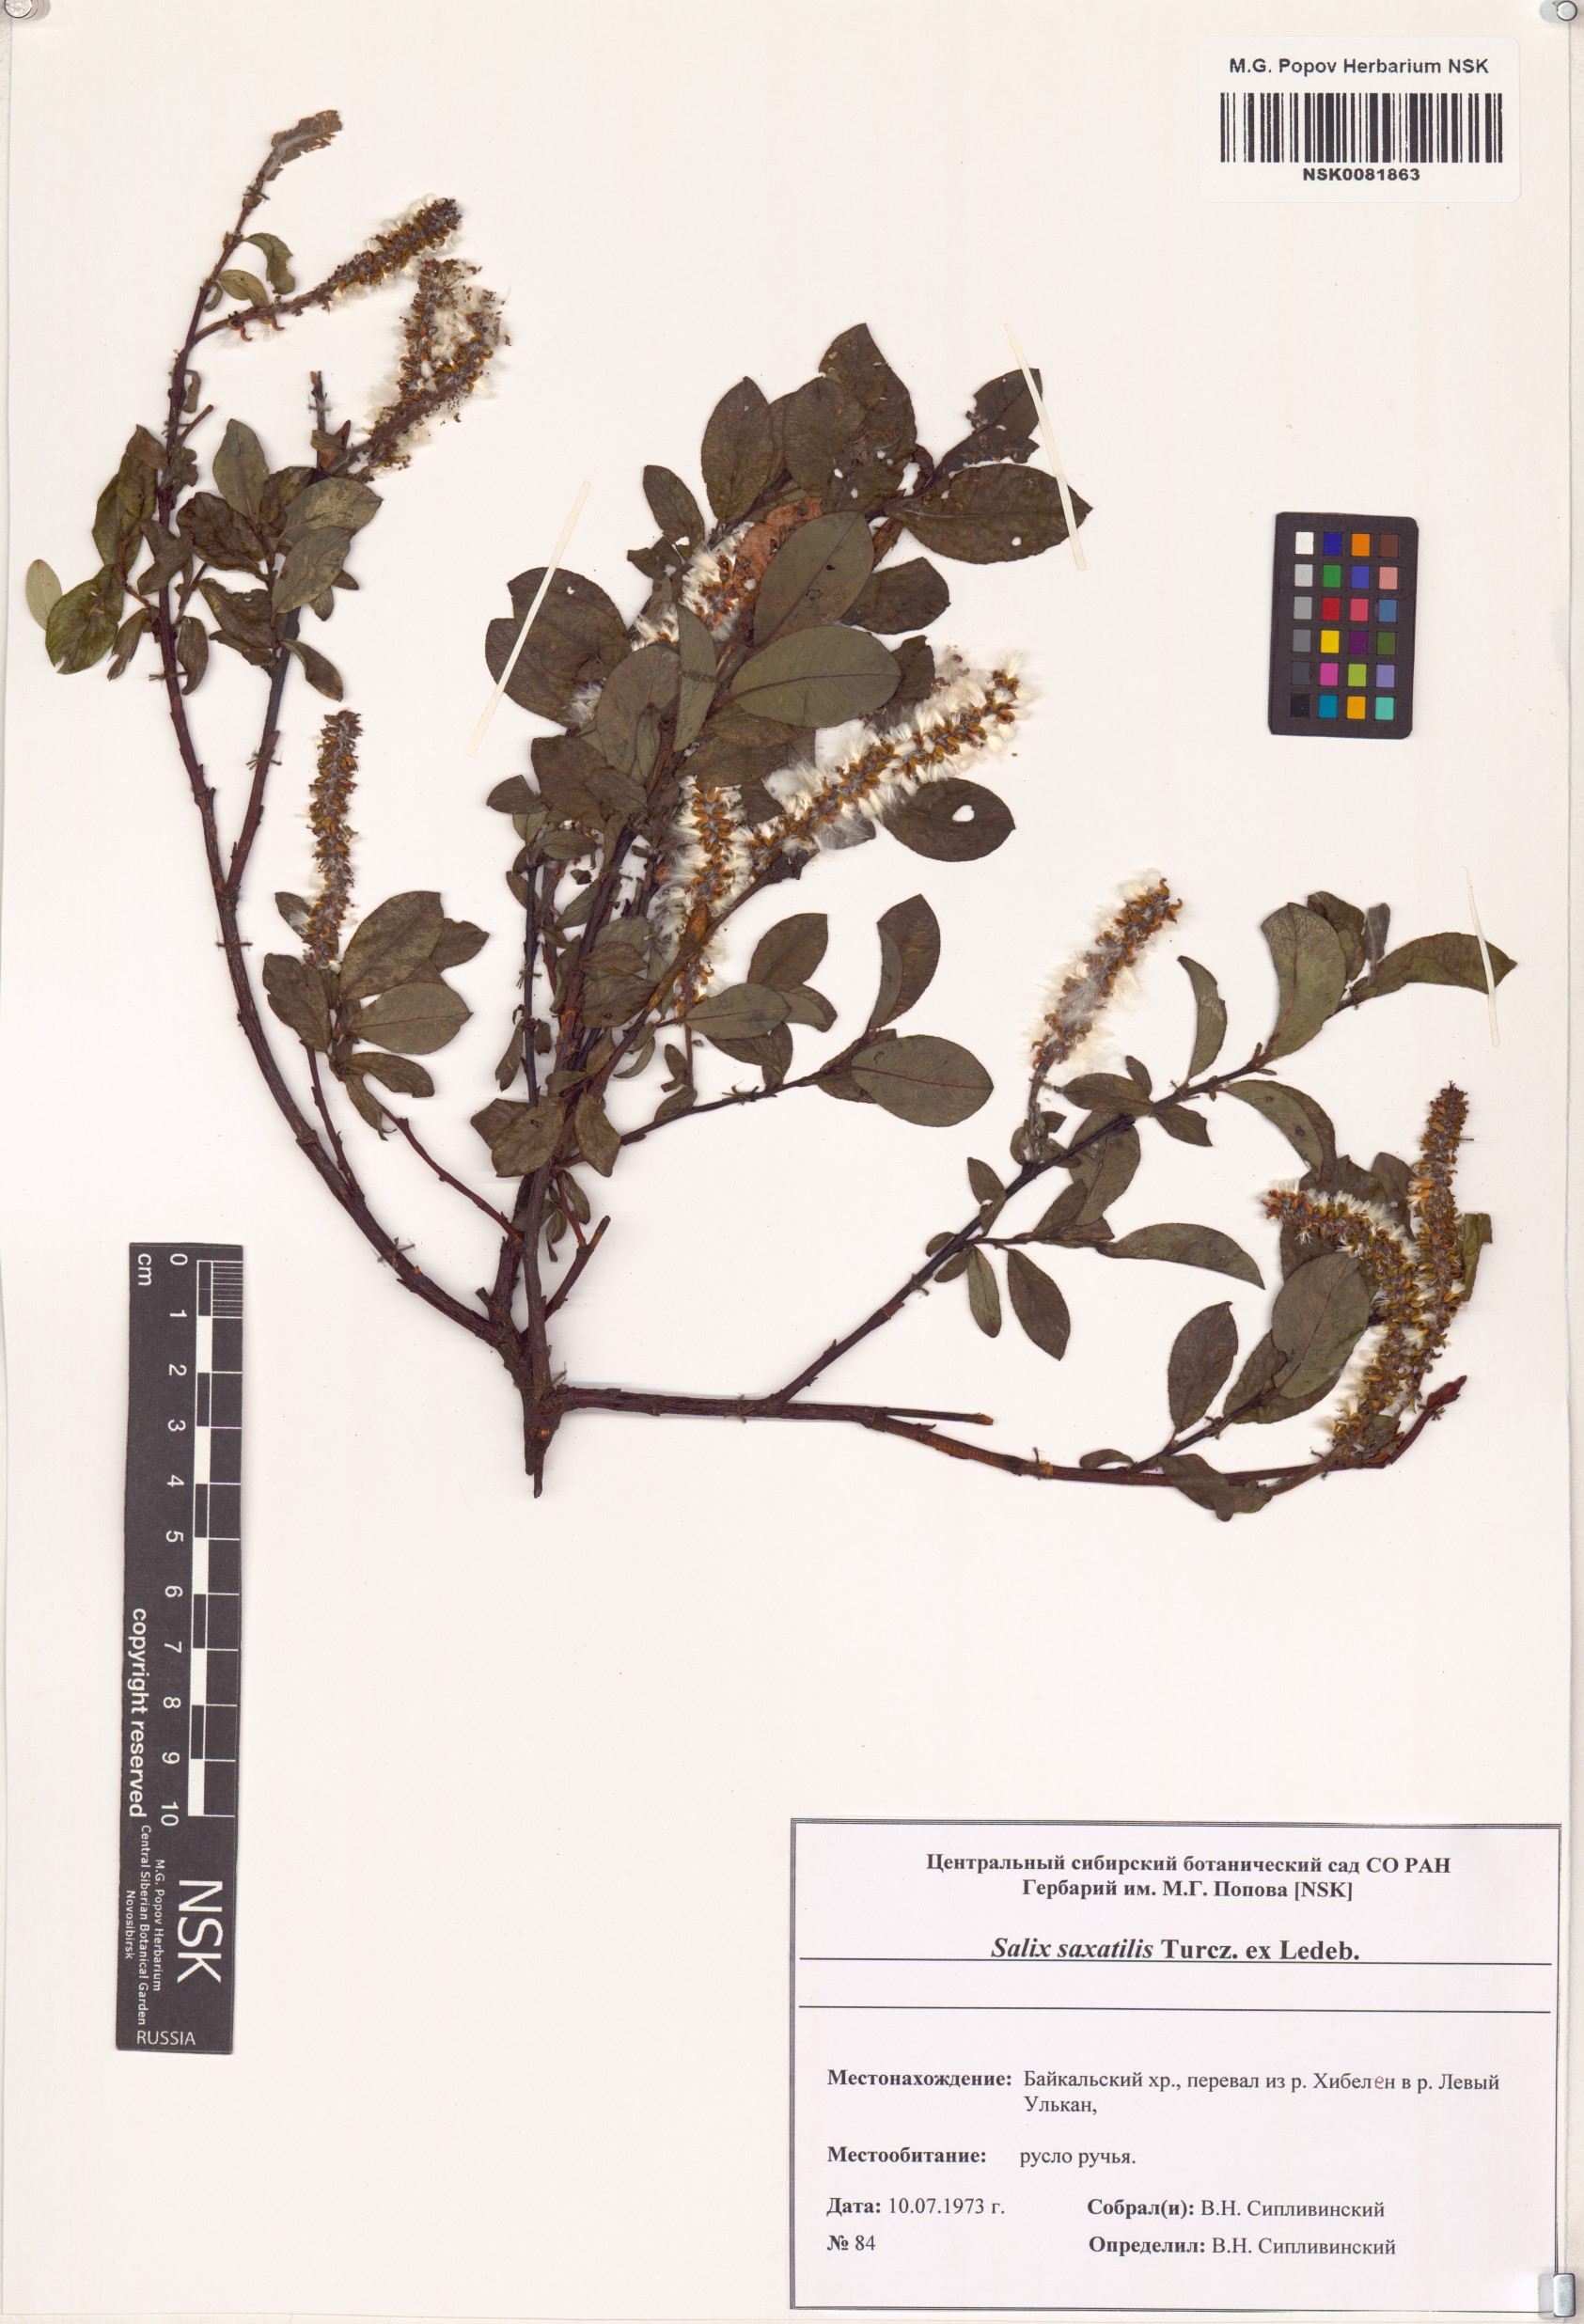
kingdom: Plantae
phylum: Tracheophyta
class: Magnoliopsida
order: Malpighiales
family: Salicaceae
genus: Salix
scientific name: Salix saxatilis
